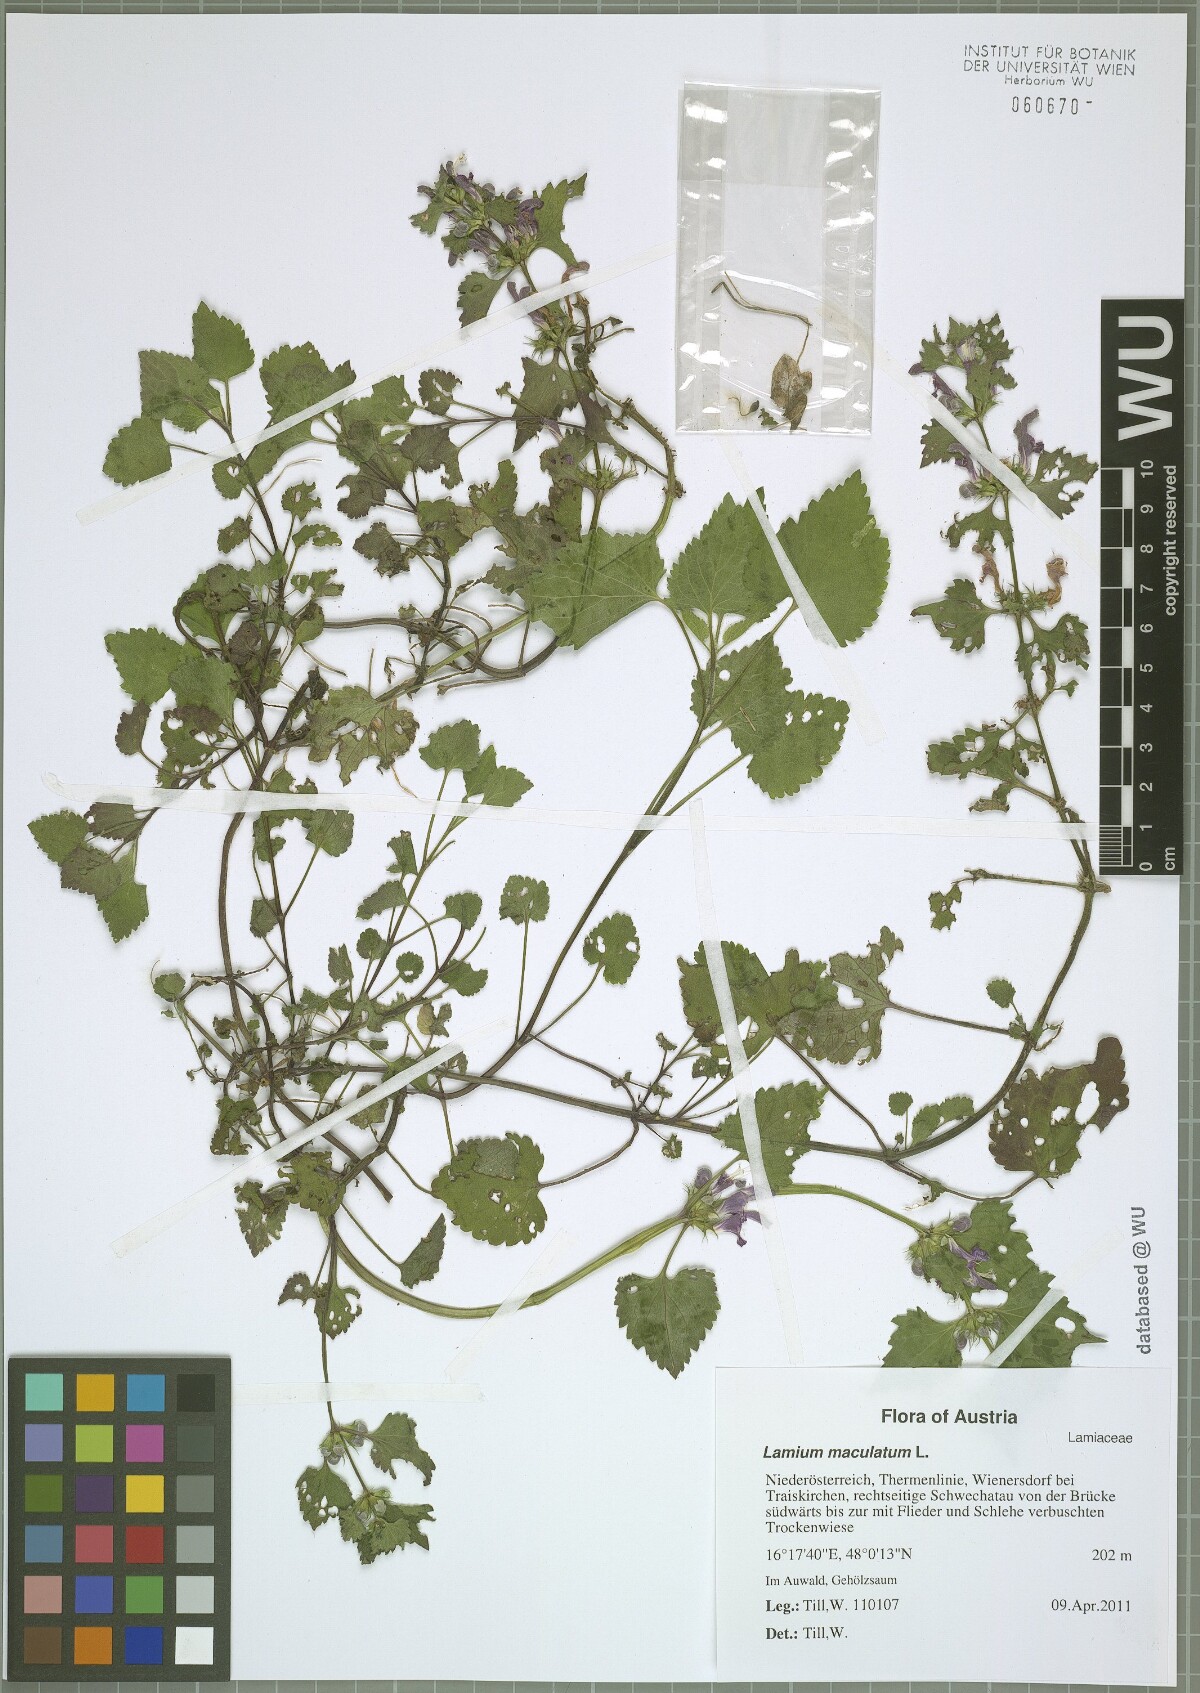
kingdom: Plantae
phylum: Tracheophyta
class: Magnoliopsida
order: Lamiales
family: Lamiaceae
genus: Lamium
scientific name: Lamium maculatum
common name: Spotted dead-nettle
